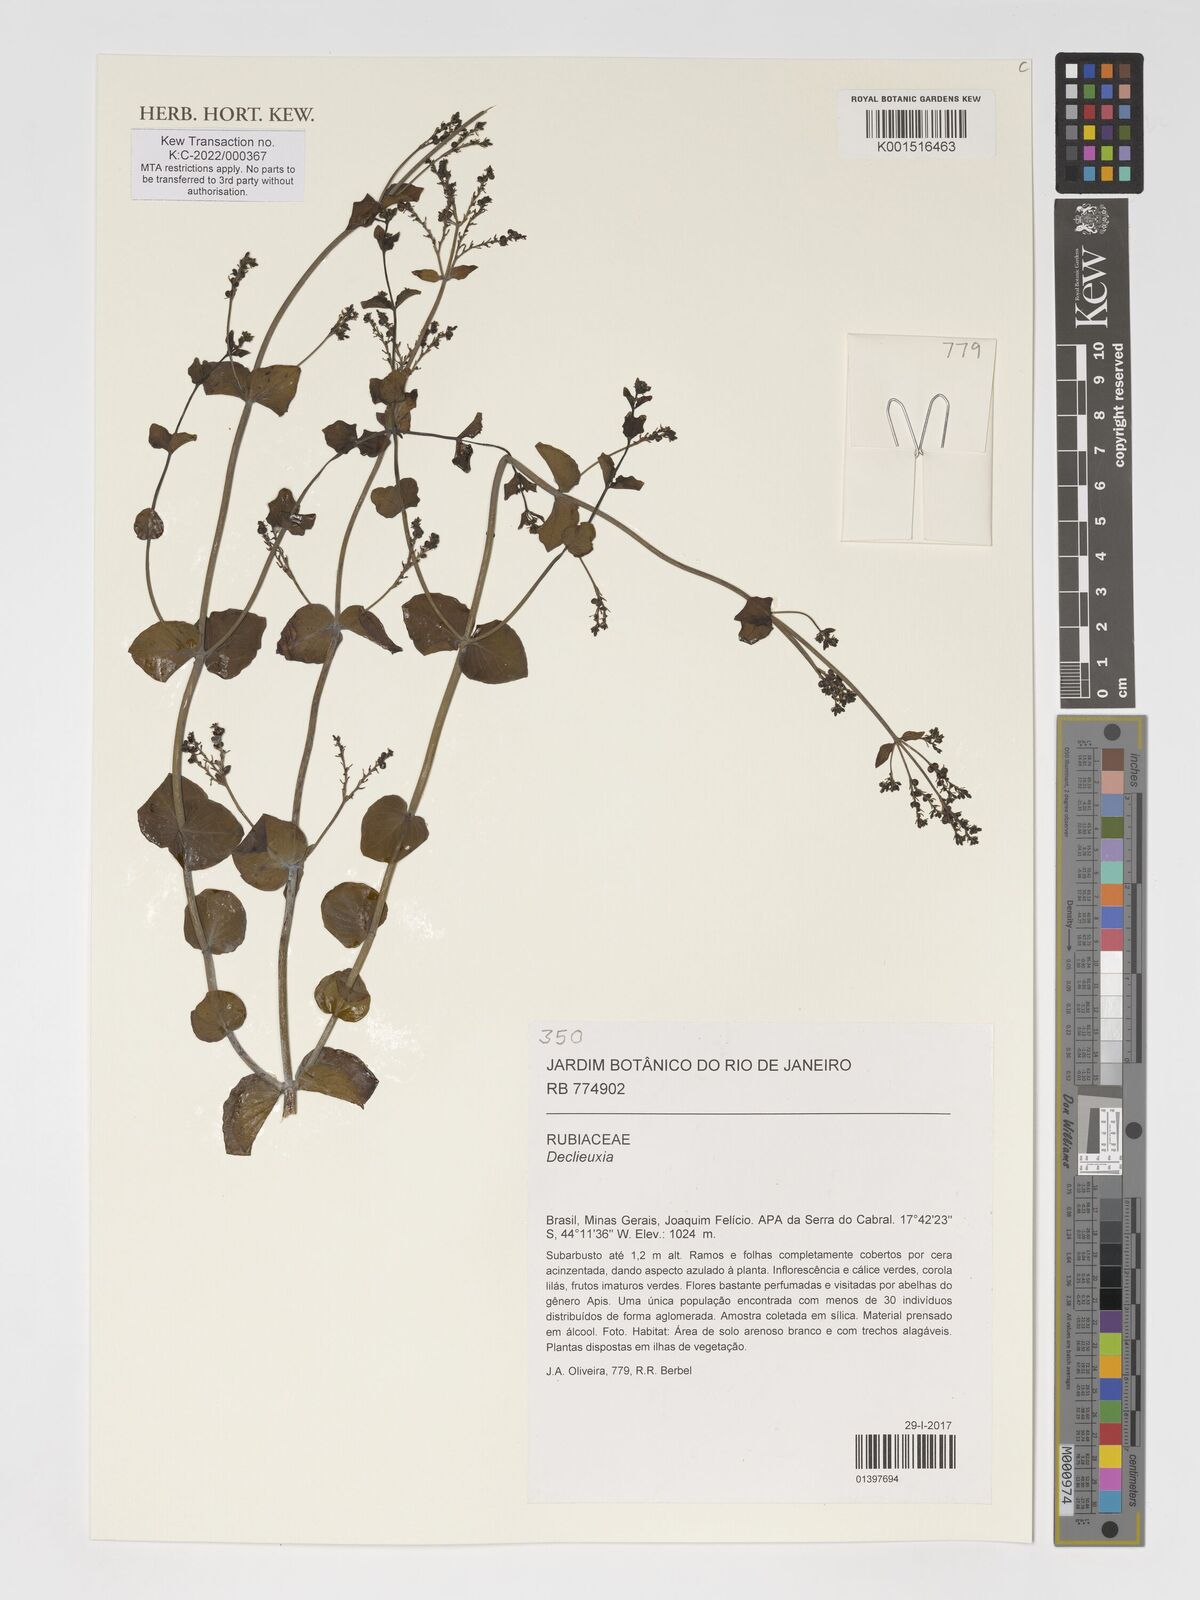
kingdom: Plantae
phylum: Tracheophyta
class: Magnoliopsida
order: Gentianales
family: Rubiaceae
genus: Declieuxia
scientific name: Declieuxia
